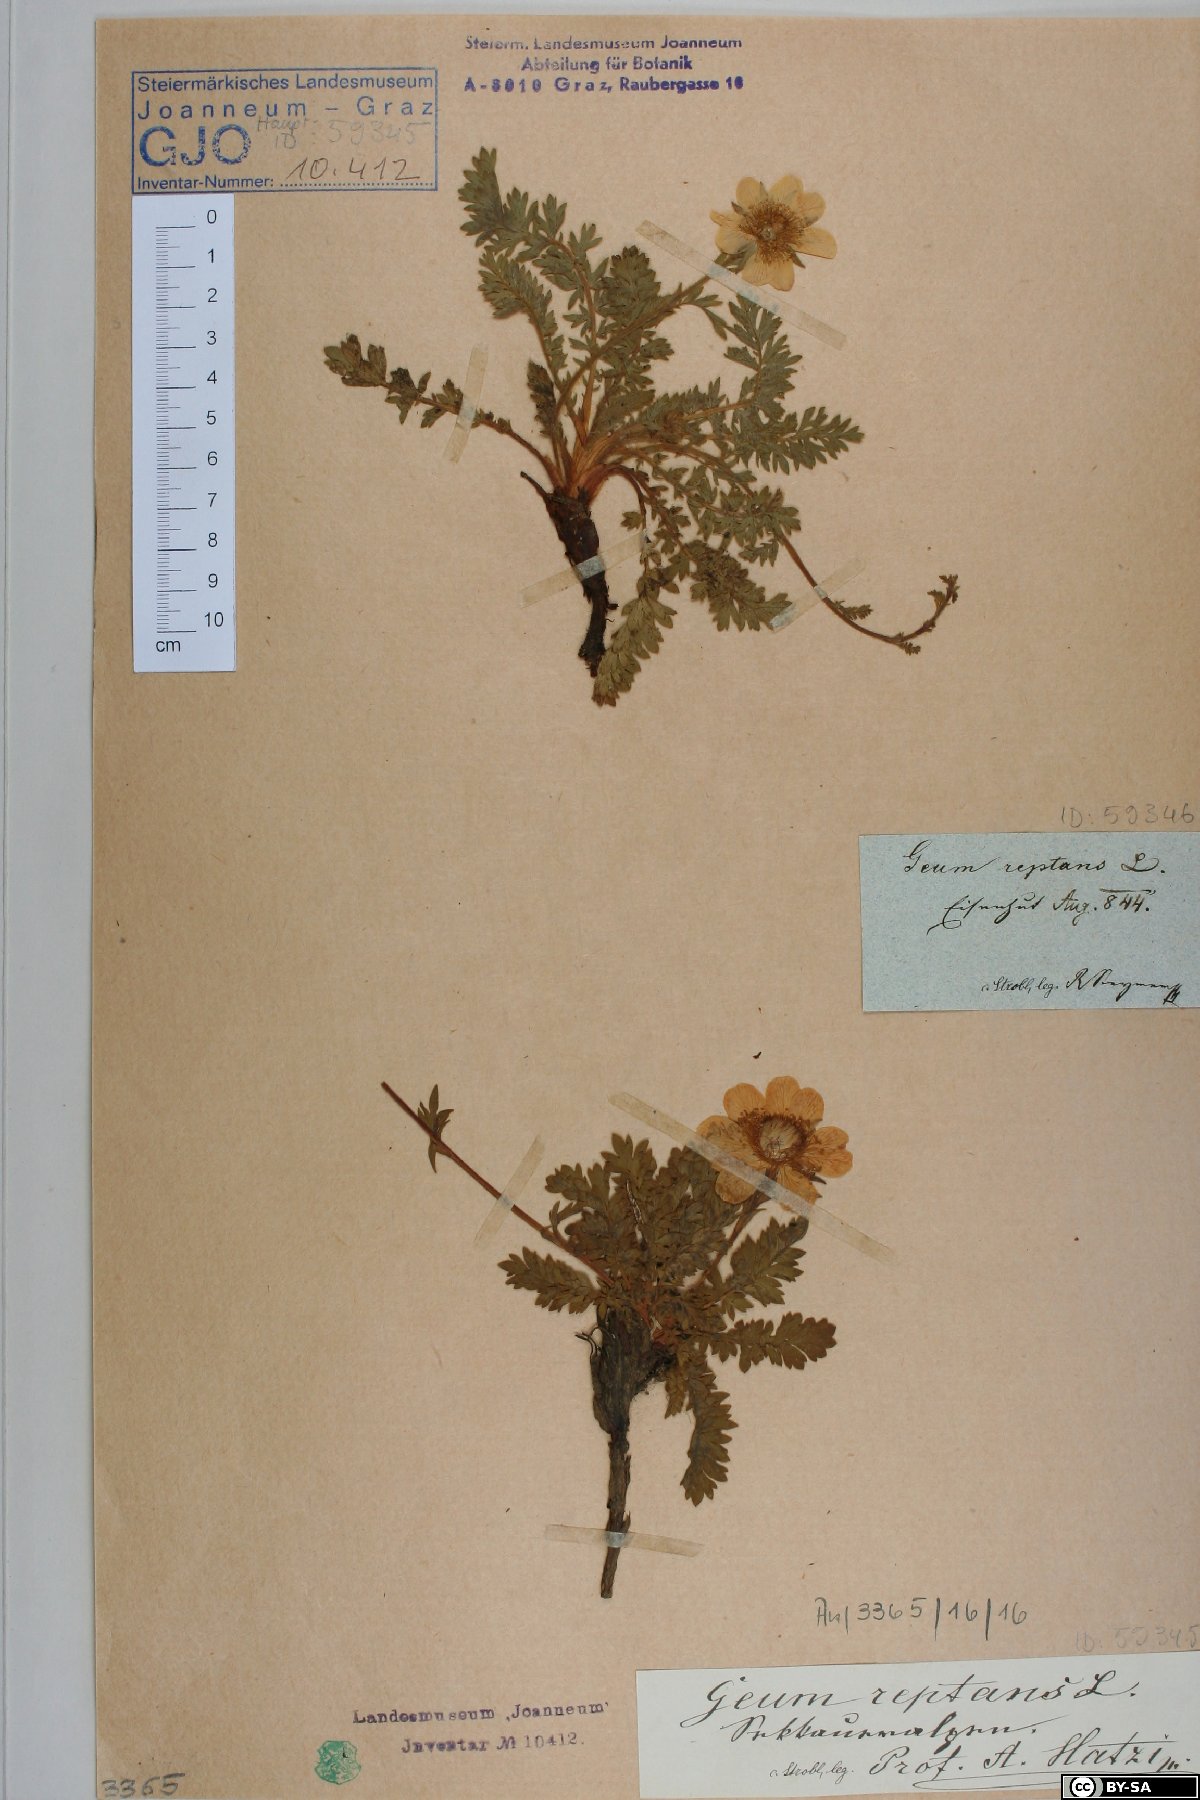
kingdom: Plantae
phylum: Tracheophyta
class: Magnoliopsida
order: Rosales
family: Rosaceae
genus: Geum
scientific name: Geum reptans
